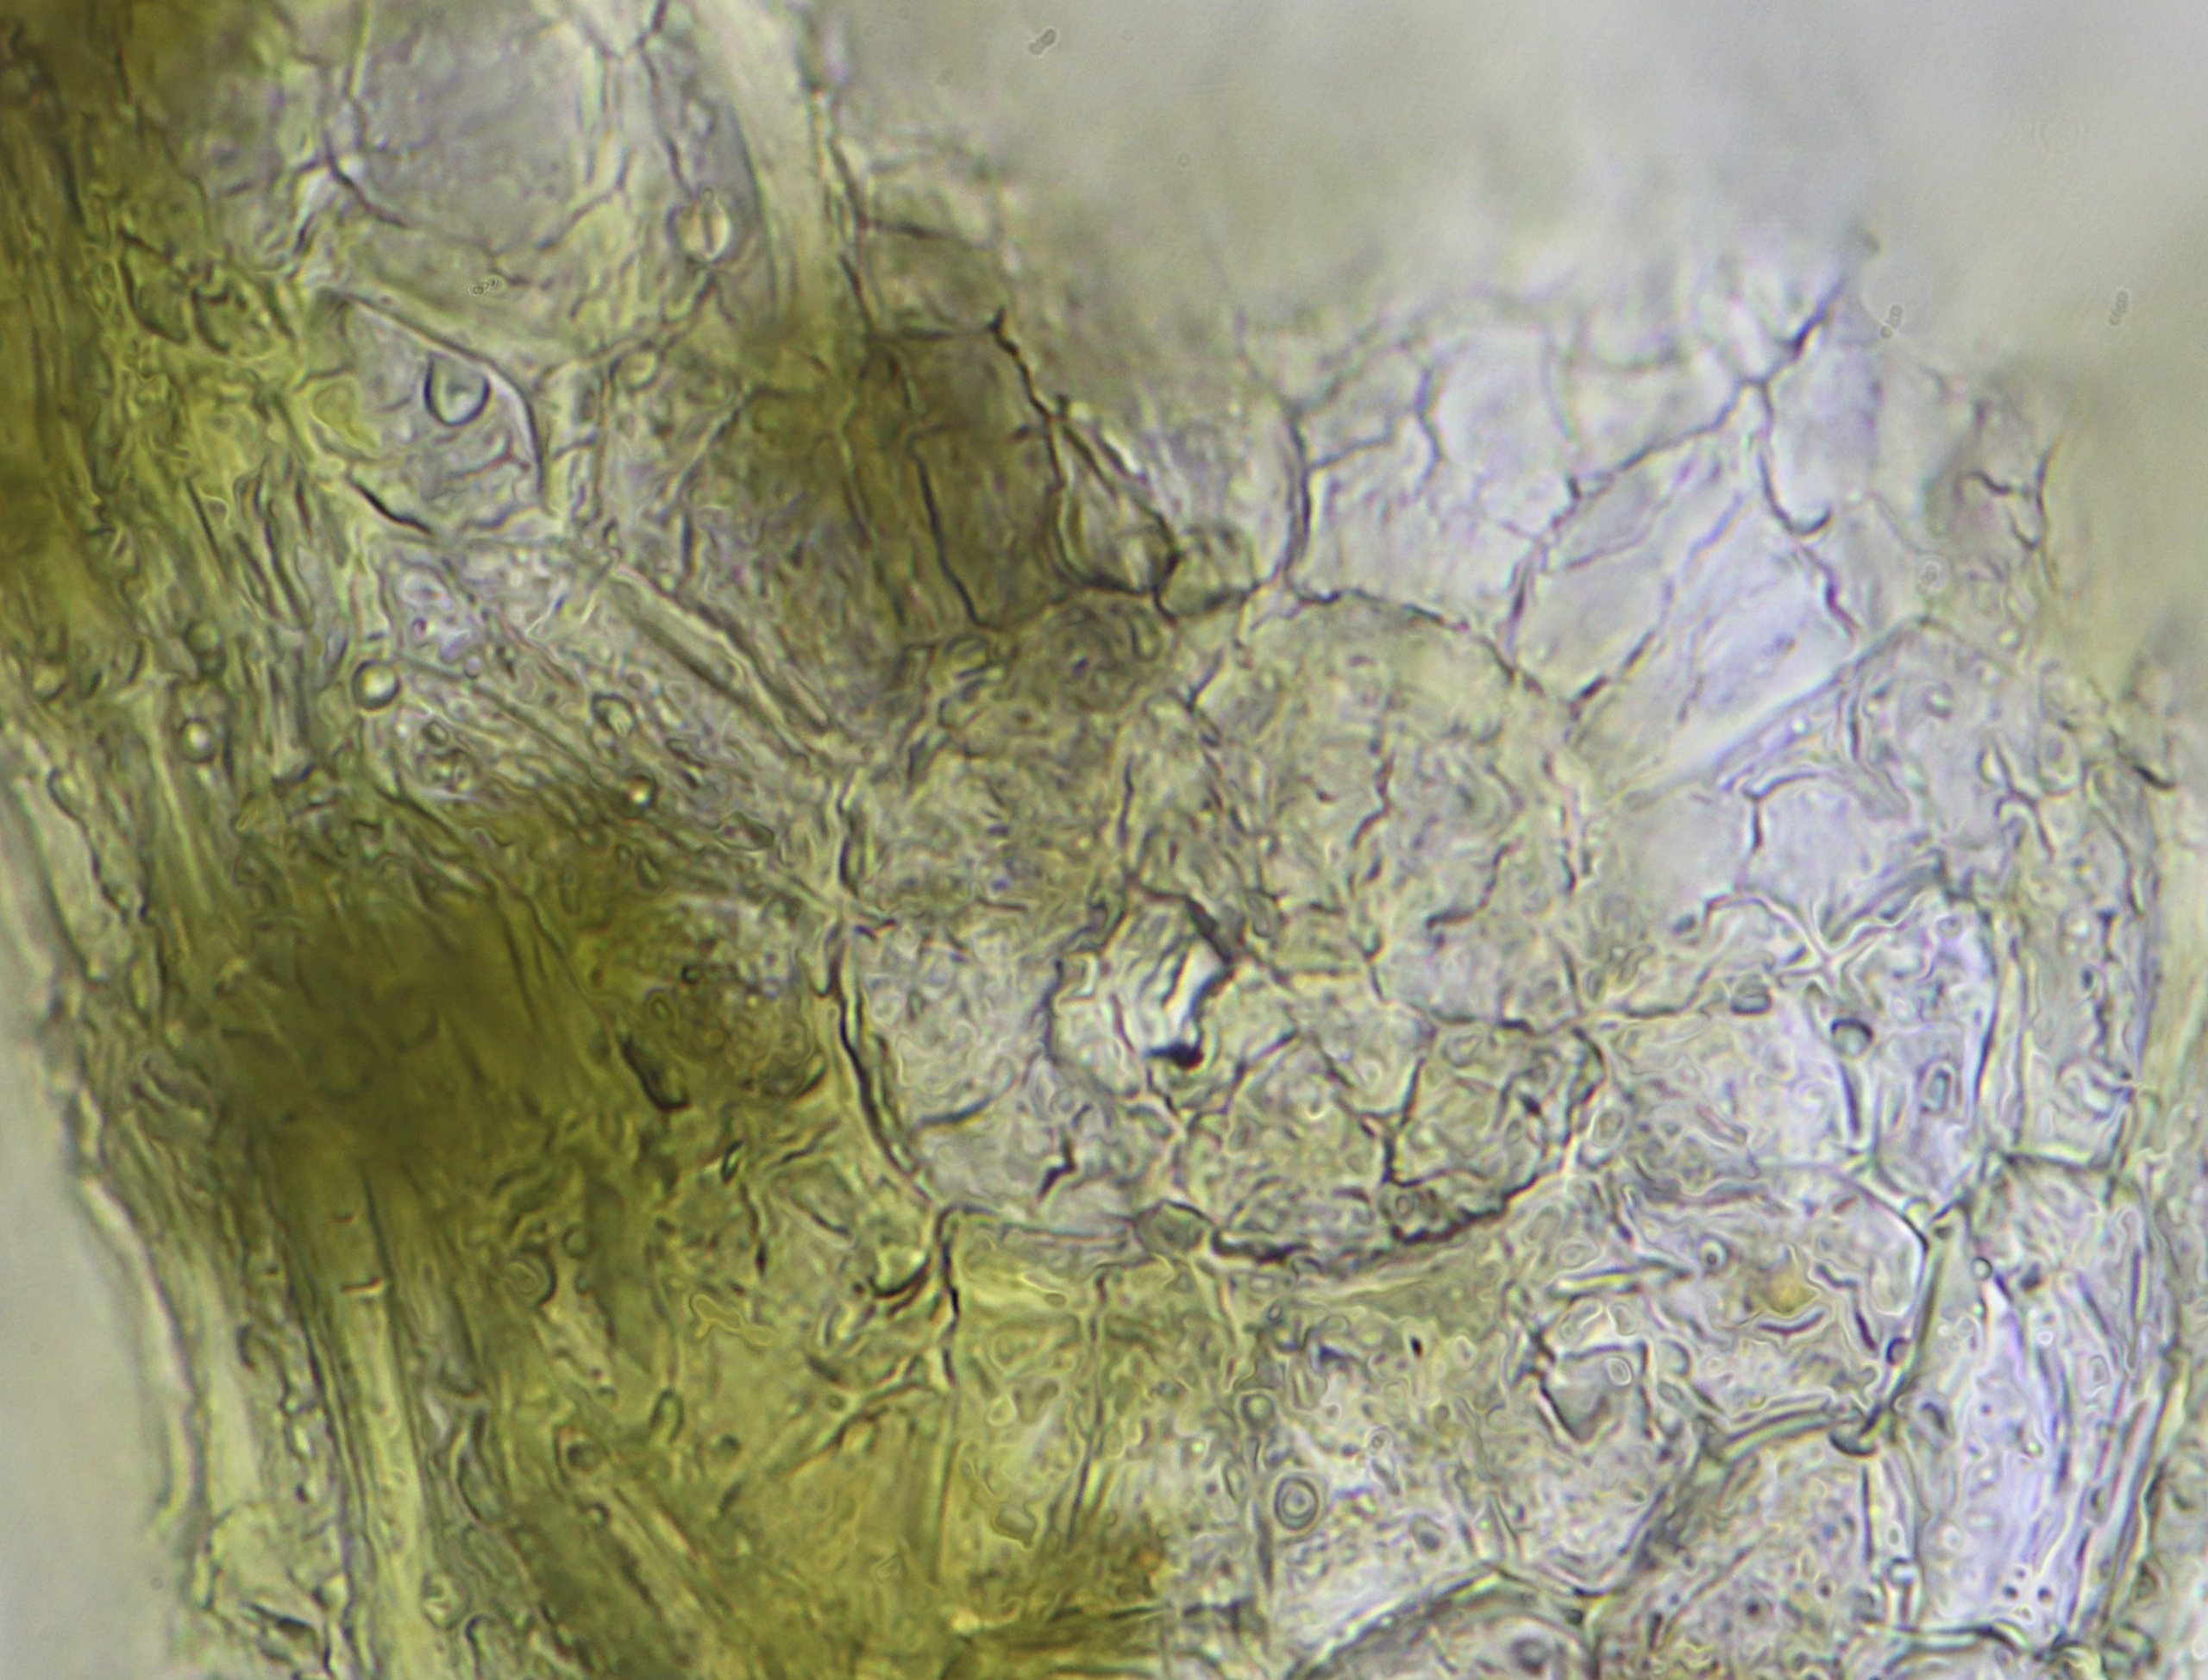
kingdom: Plantae
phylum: Bryophyta
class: Bryopsida
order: Orthotrichales
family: Orthotrichaceae
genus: Lewinskya
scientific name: Lewinskya striata
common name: Glatkapslet furehætte
